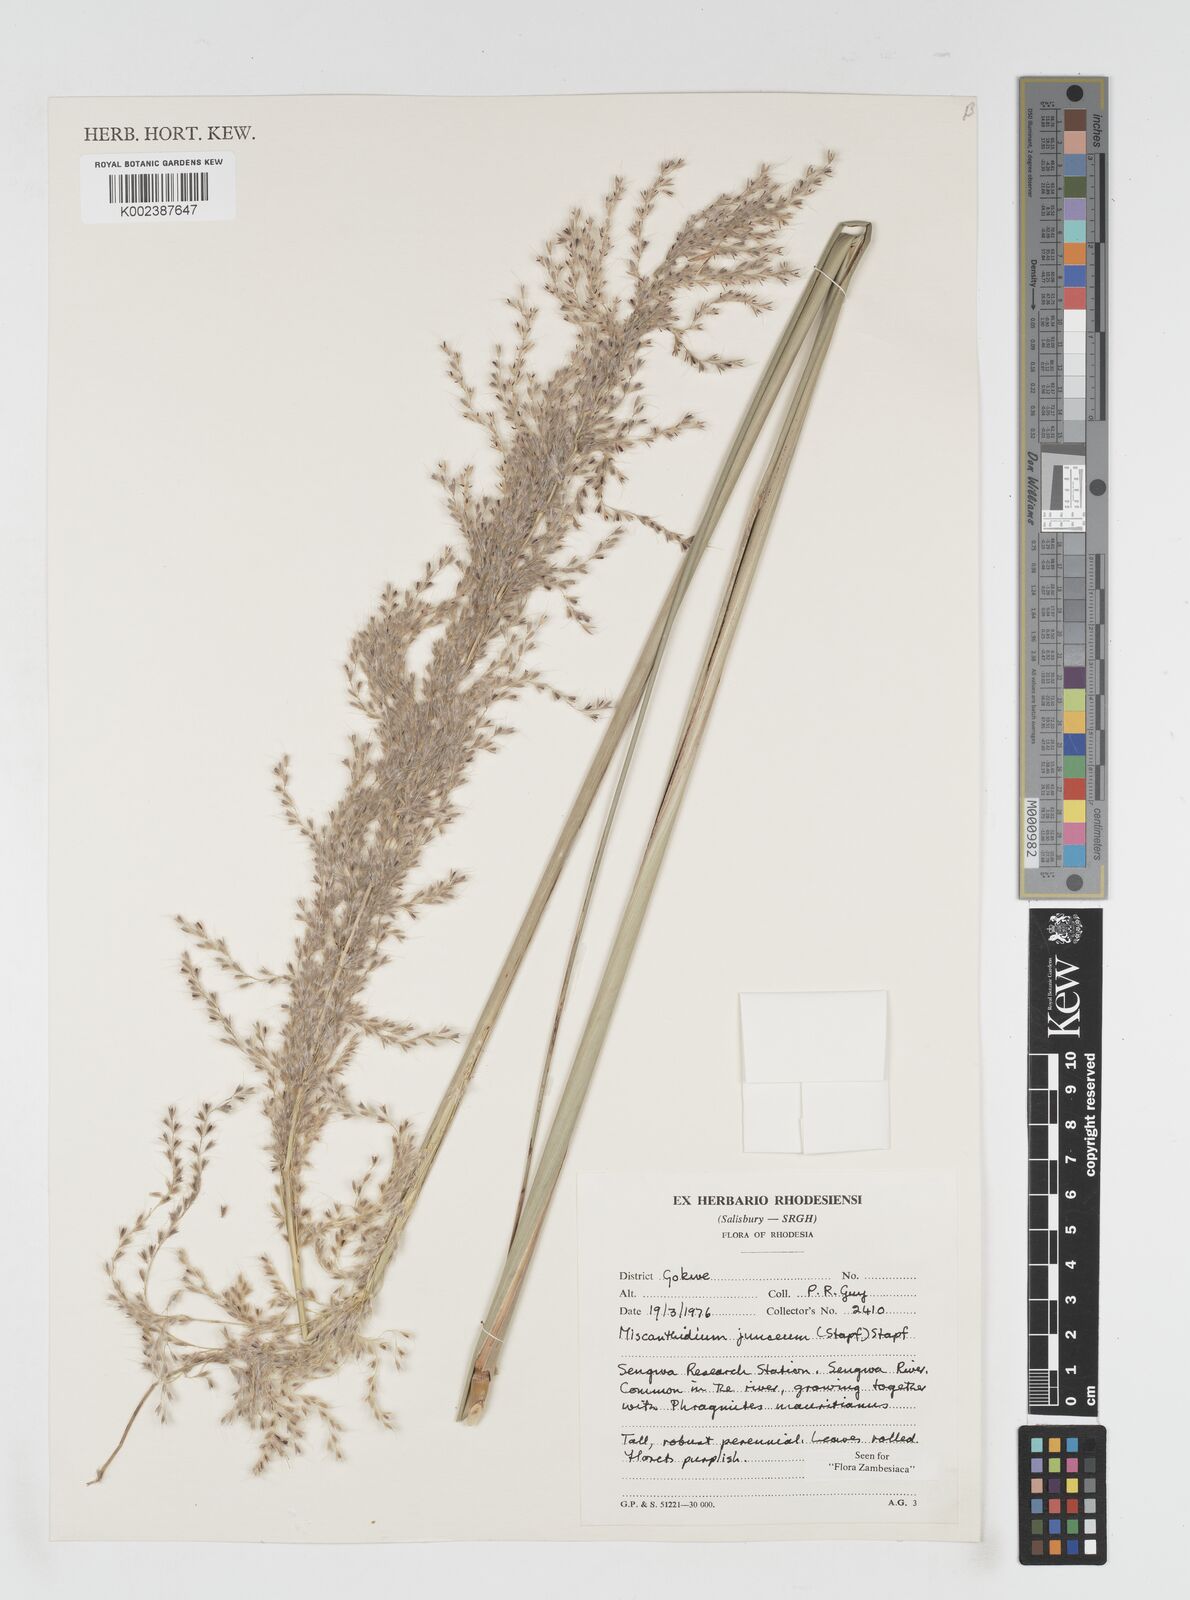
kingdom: Plantae
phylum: Tracheophyta
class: Liliopsida
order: Poales
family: Poaceae
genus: Miscanthidium
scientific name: Miscanthidium junceum
